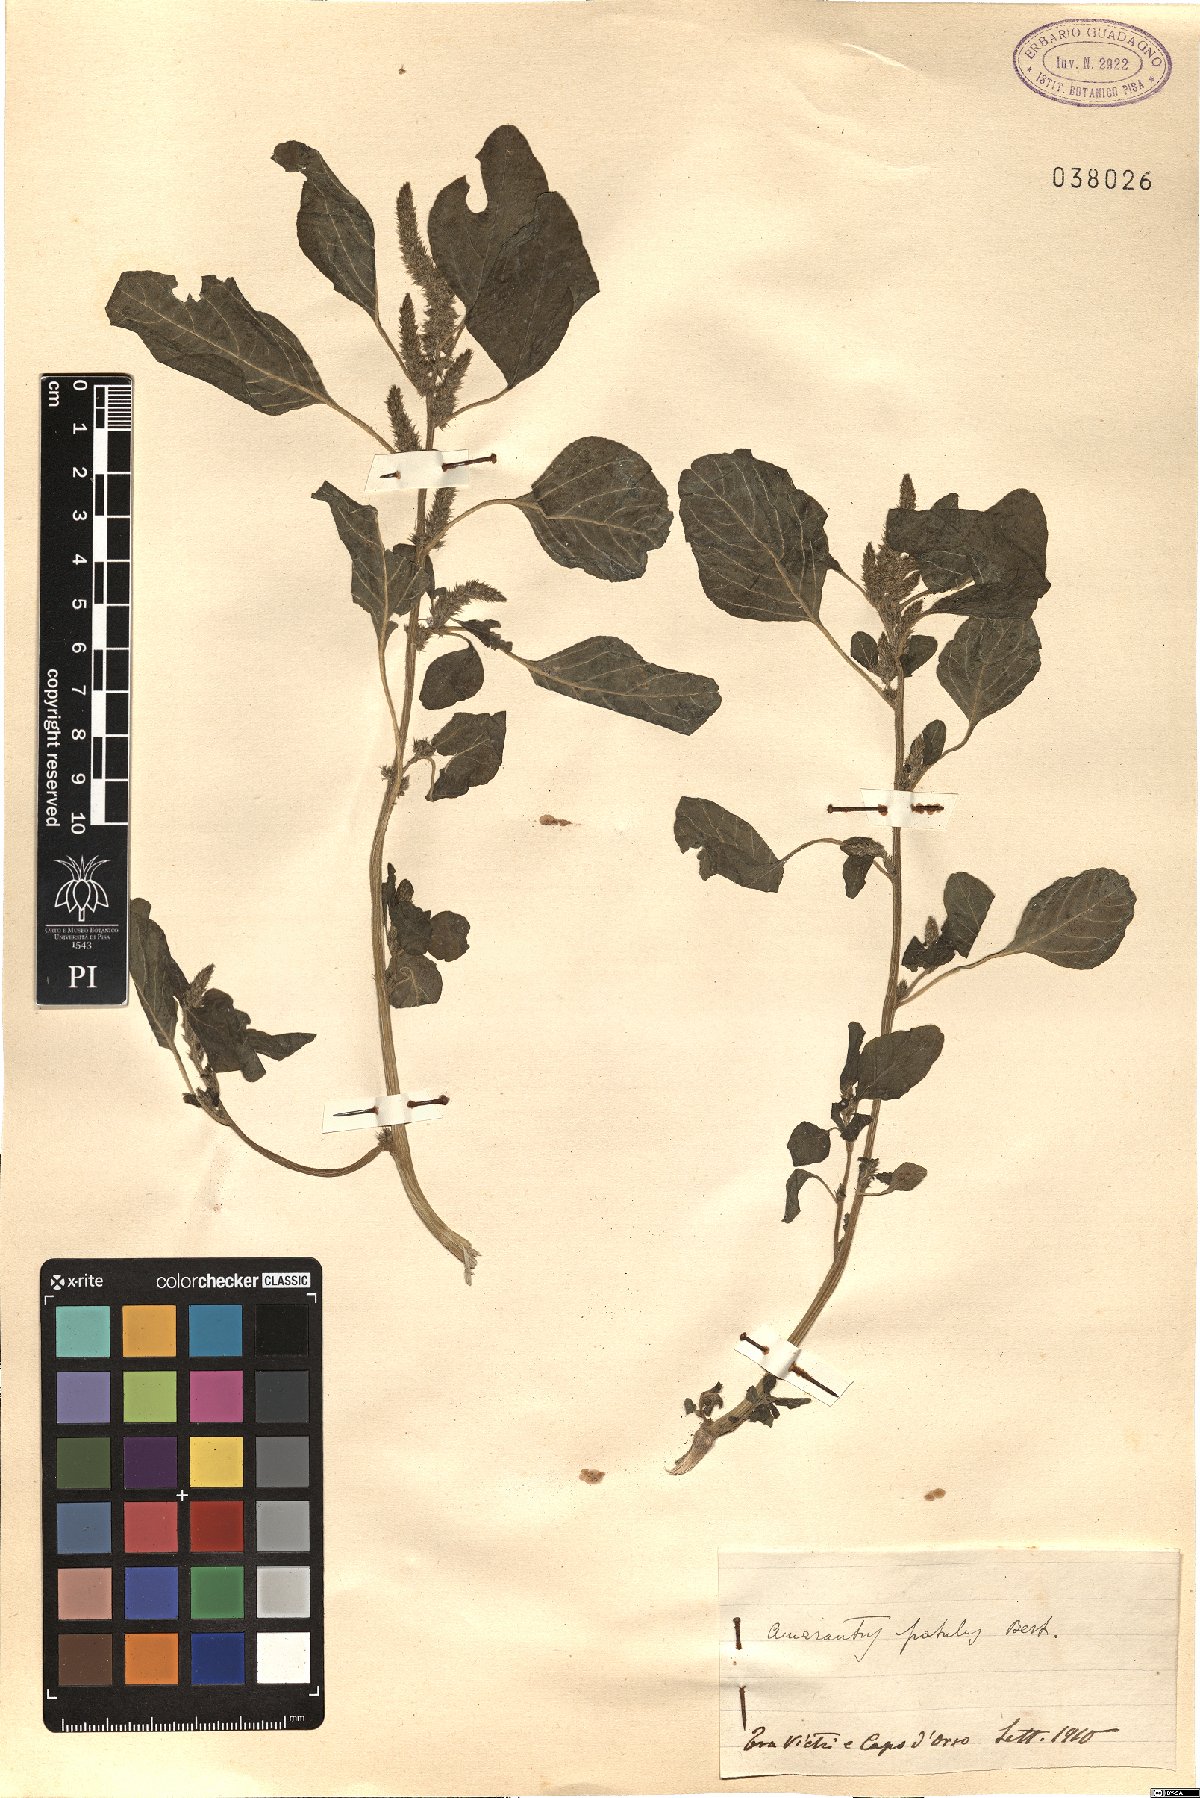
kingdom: Plantae
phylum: Tracheophyta
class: Magnoliopsida
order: Caryophyllales
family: Amaranthaceae
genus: Amaranthus
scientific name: Amaranthus hybridus
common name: Green amaranth
